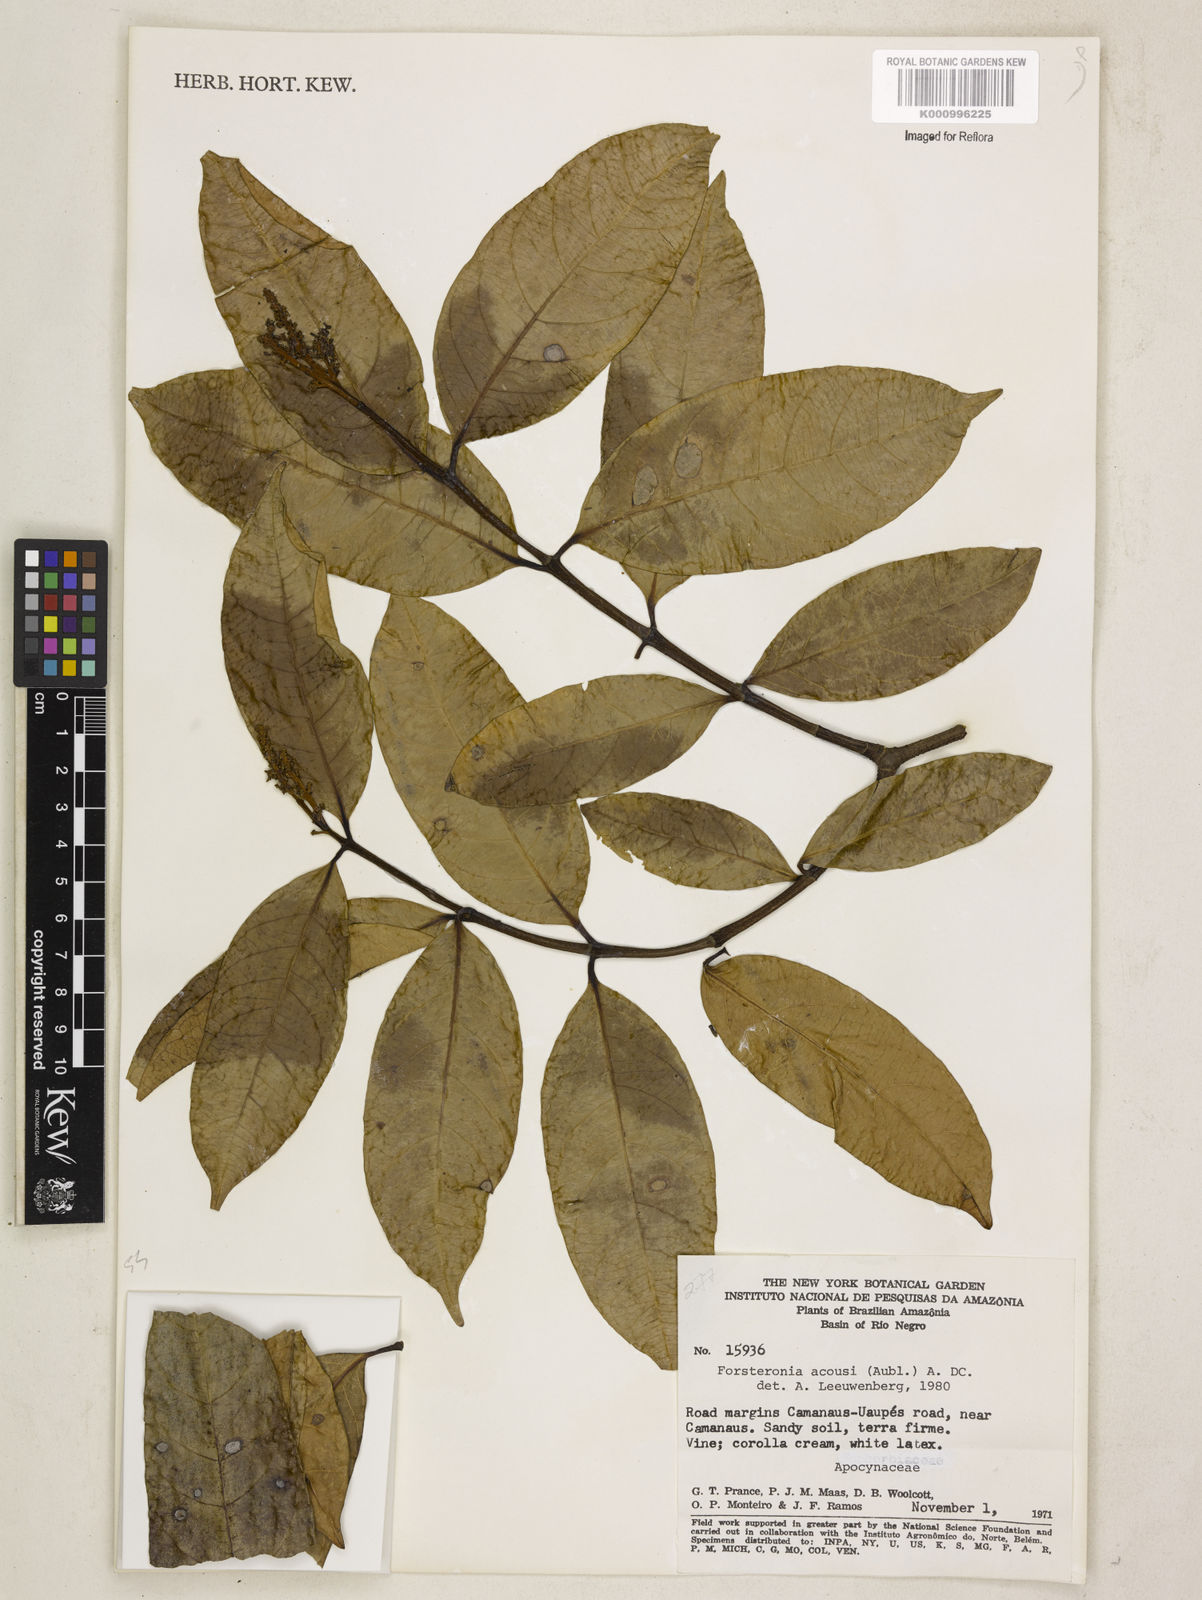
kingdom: Plantae
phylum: Tracheophyta
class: Magnoliopsida
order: Gentianales
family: Apocynaceae
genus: Forsteronia
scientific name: Forsteronia acouci
